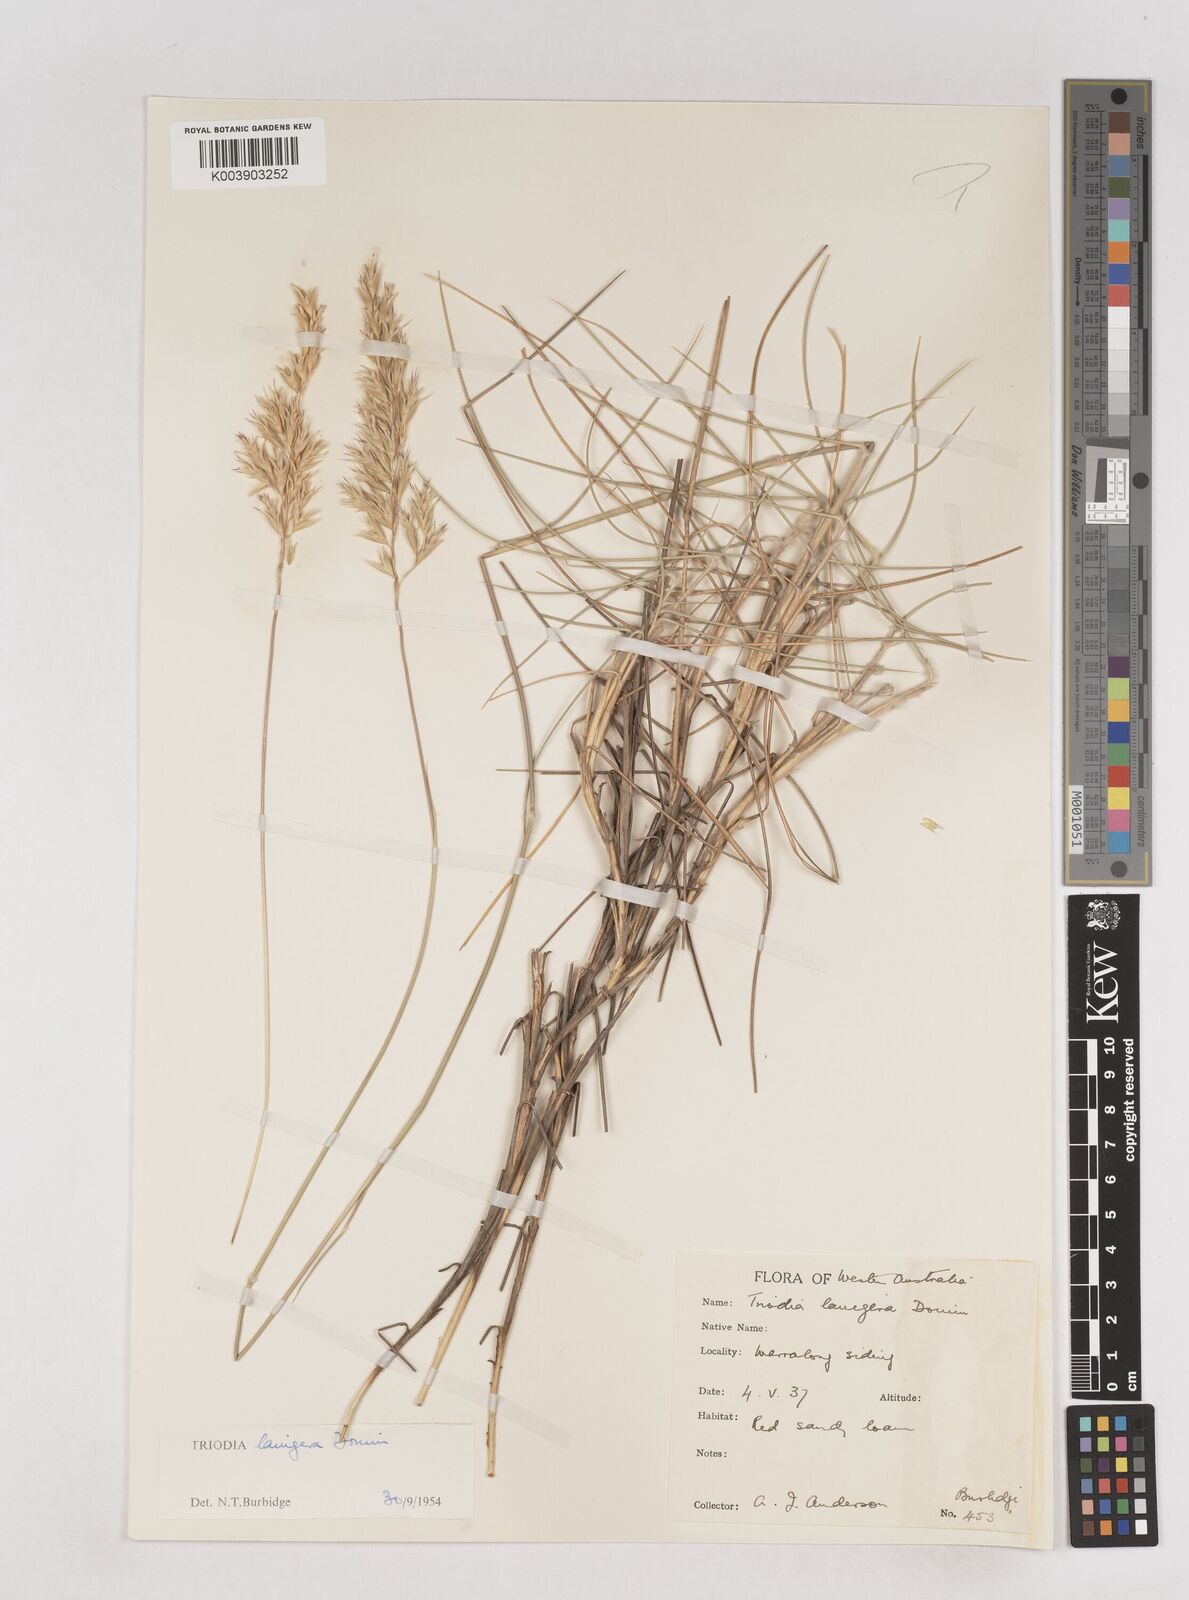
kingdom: Plantae
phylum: Tracheophyta
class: Liliopsida
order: Poales
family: Poaceae
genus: Triodia
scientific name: Triodia lanigera
